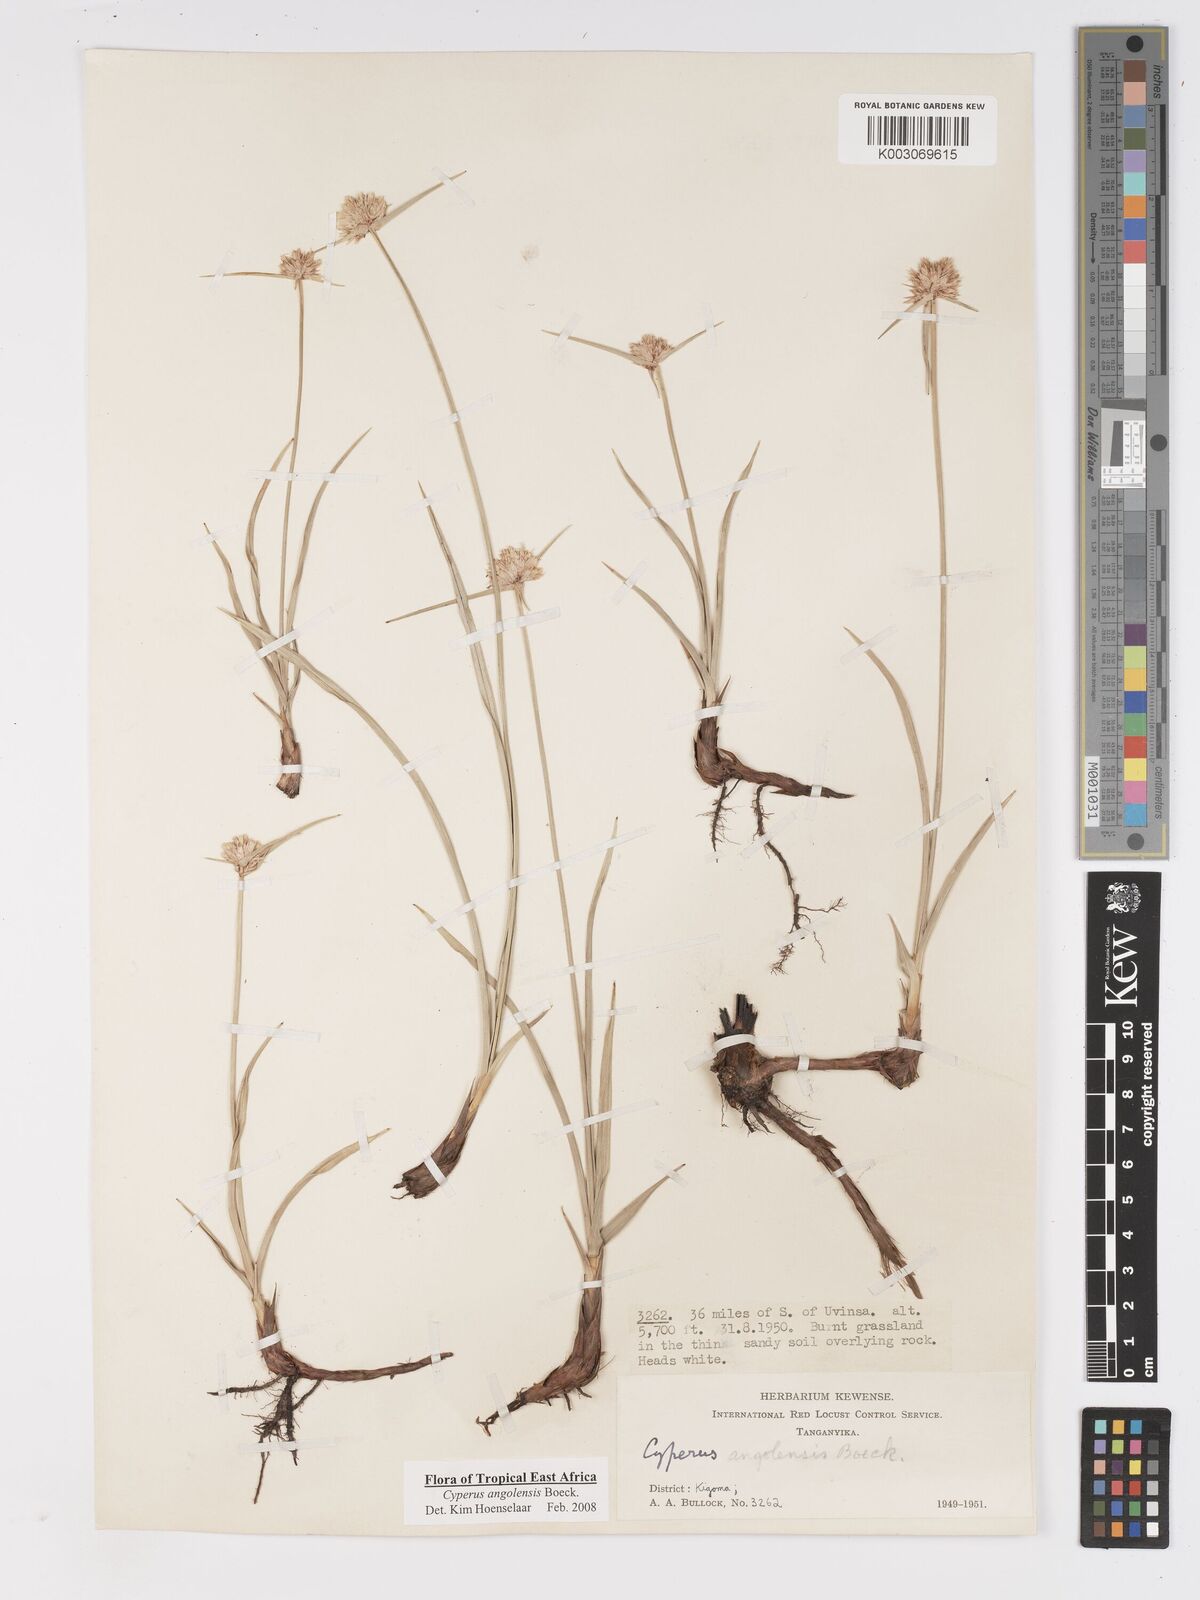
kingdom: Plantae
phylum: Tracheophyta
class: Liliopsida
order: Poales
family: Cyperaceae
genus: Cyperus
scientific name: Cyperus angolensis
